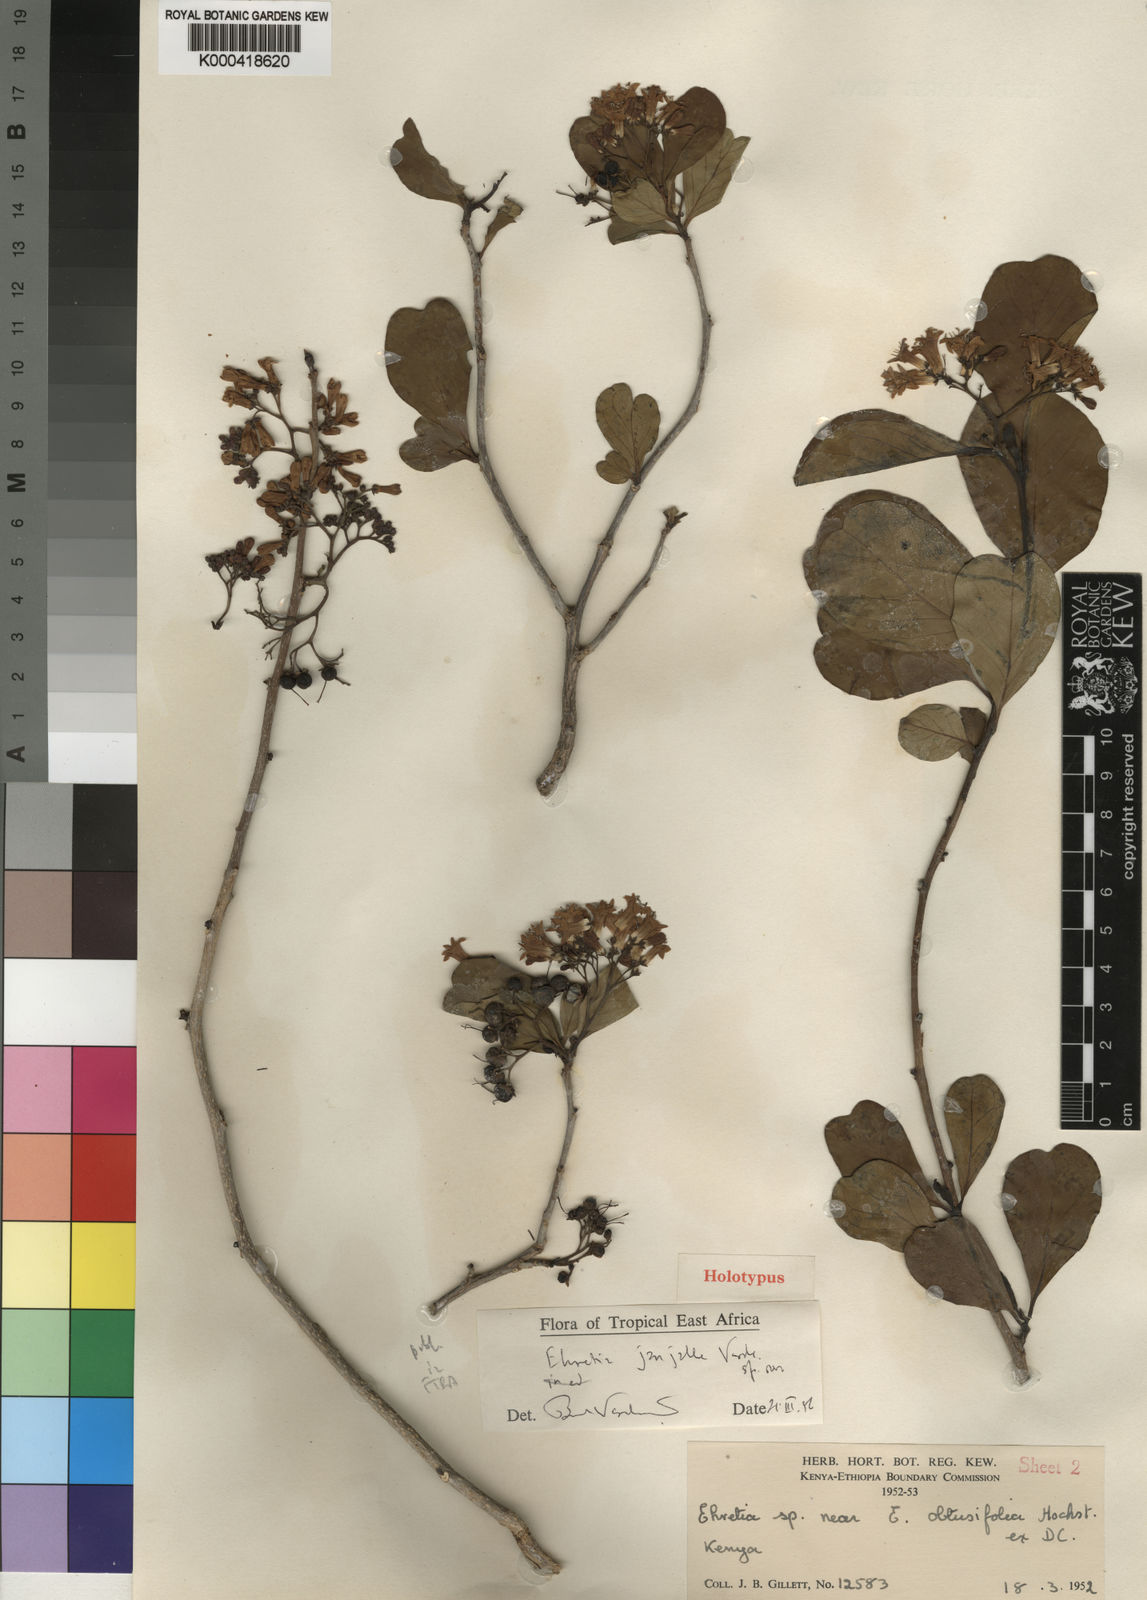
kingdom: Plantae
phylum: Tracheophyta
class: Magnoliopsida
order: Boraginales
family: Ehretiaceae
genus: Ehretia
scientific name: Ehretia janjalle
